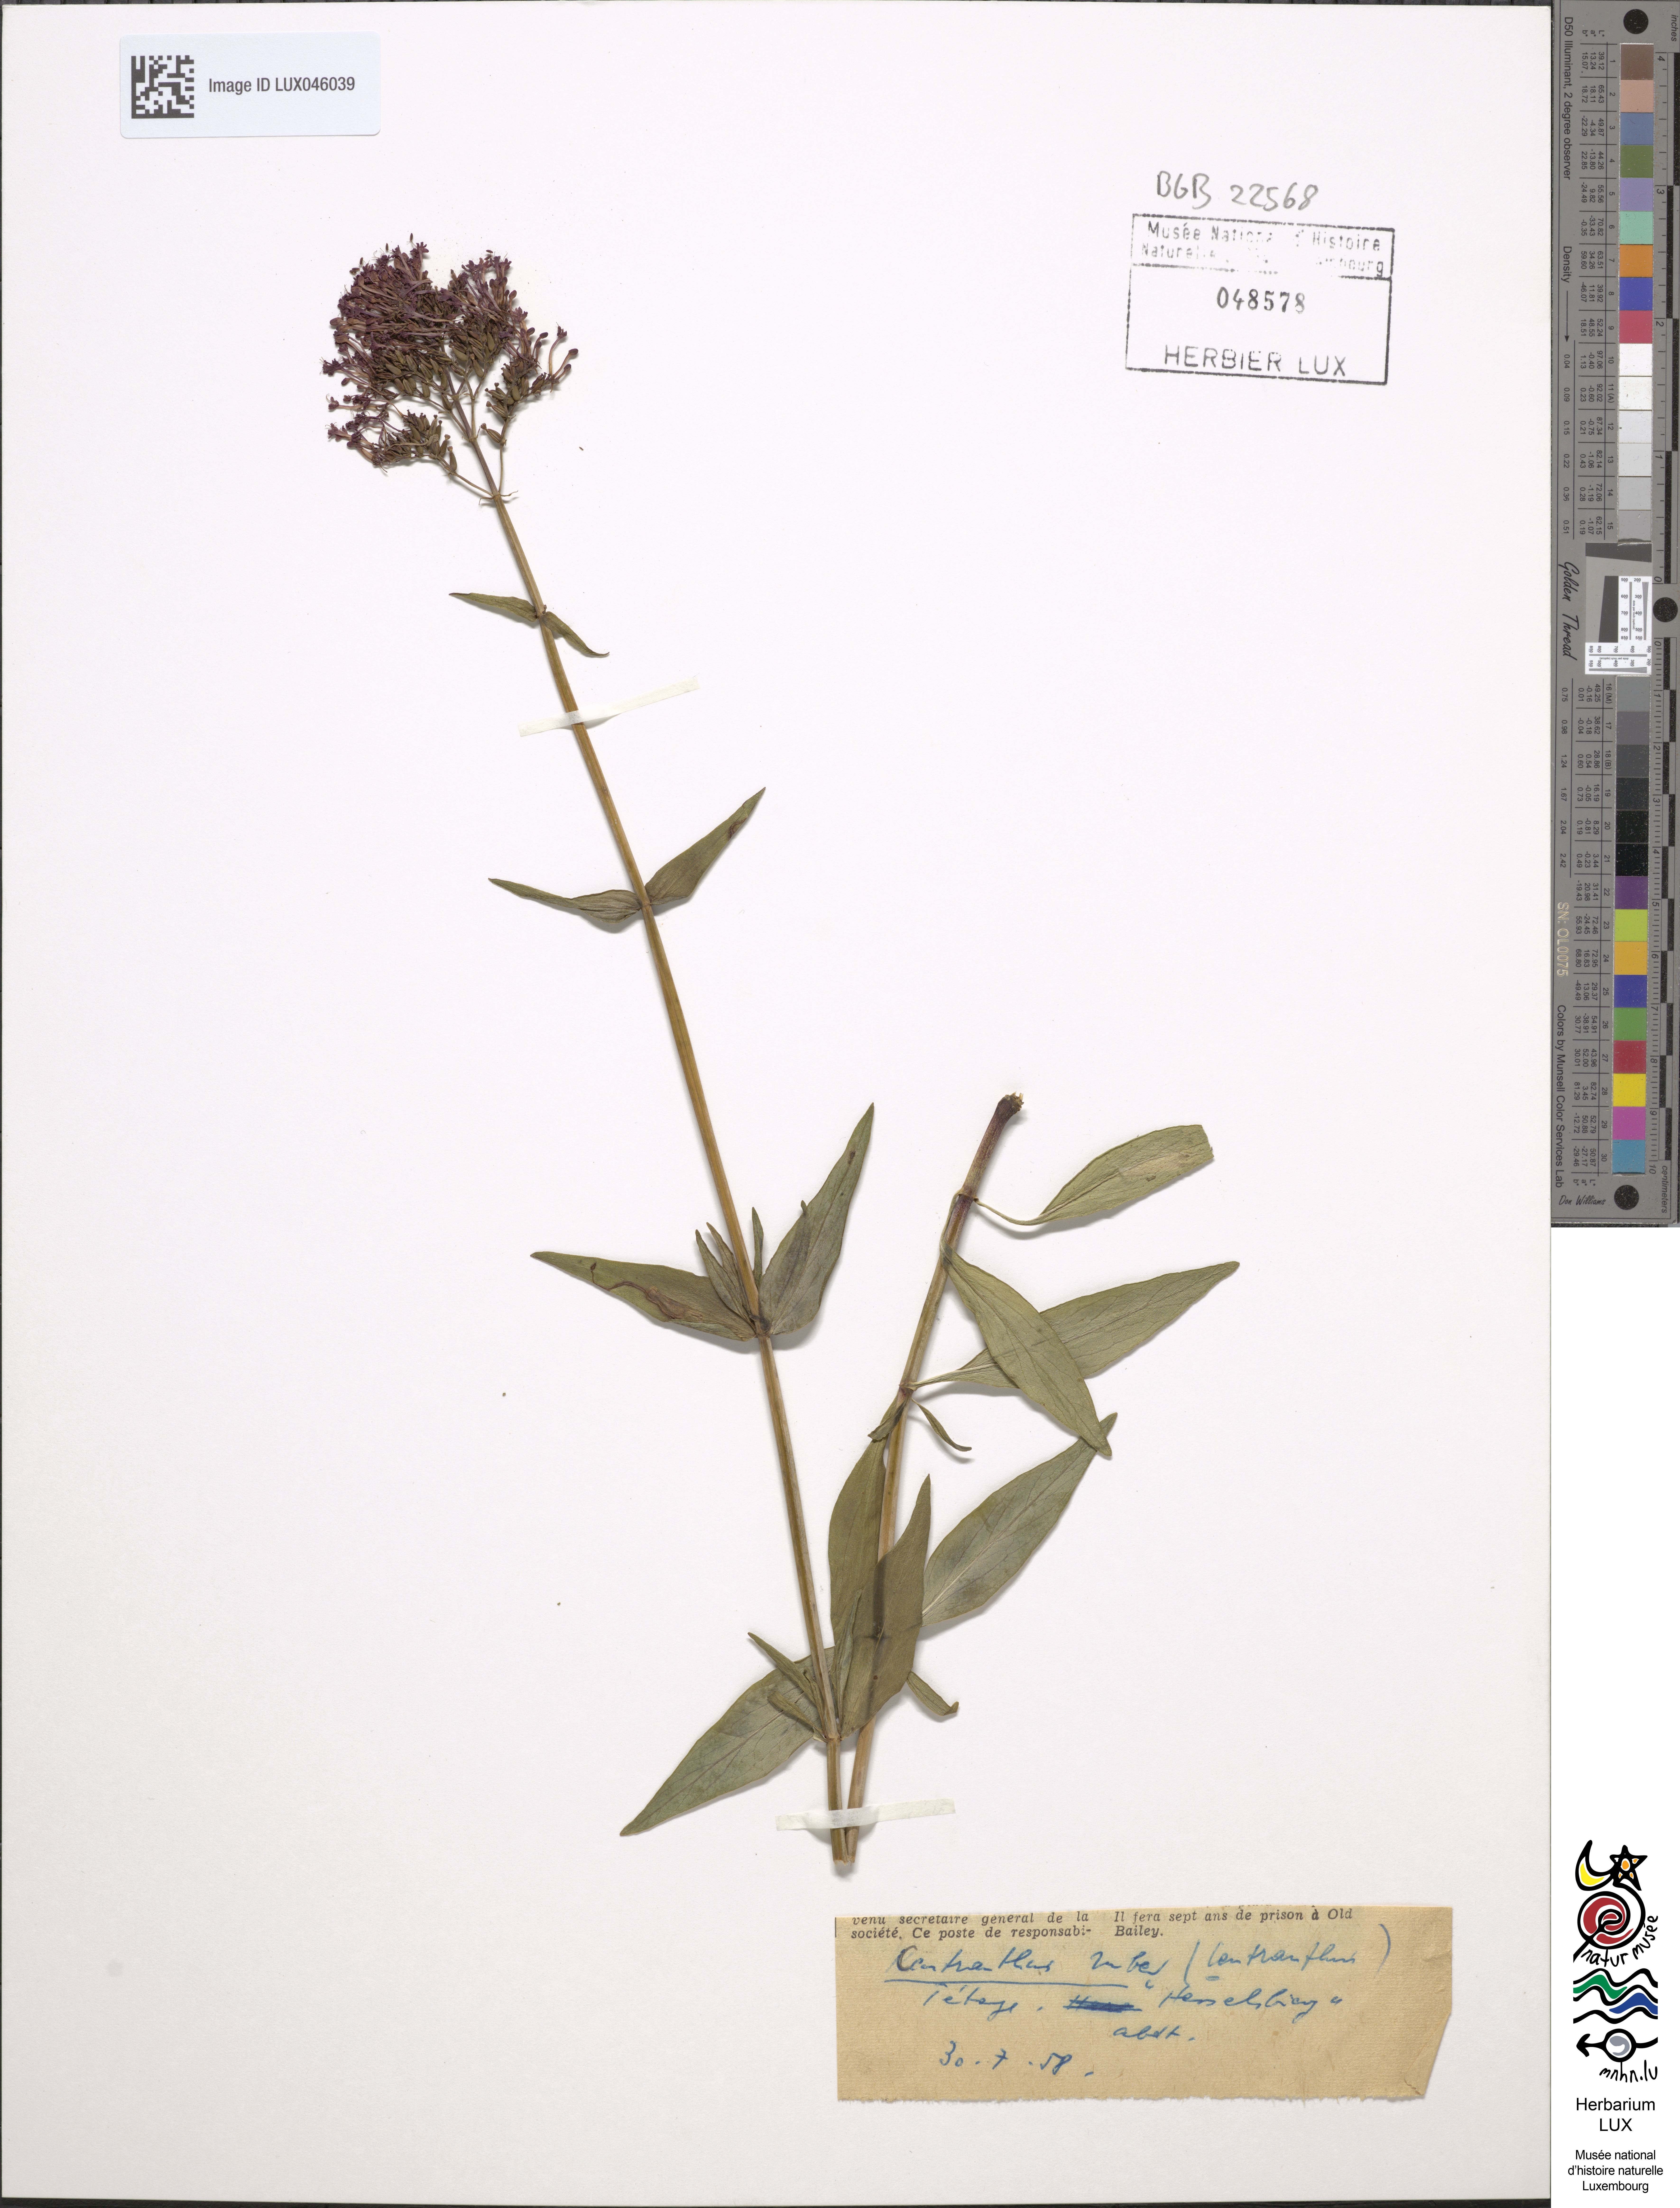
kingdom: Plantae
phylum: Tracheophyta
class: Magnoliopsida
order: Dipsacales
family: Caprifoliaceae
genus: Centranthus
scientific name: Centranthus ruber
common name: Red valerian
